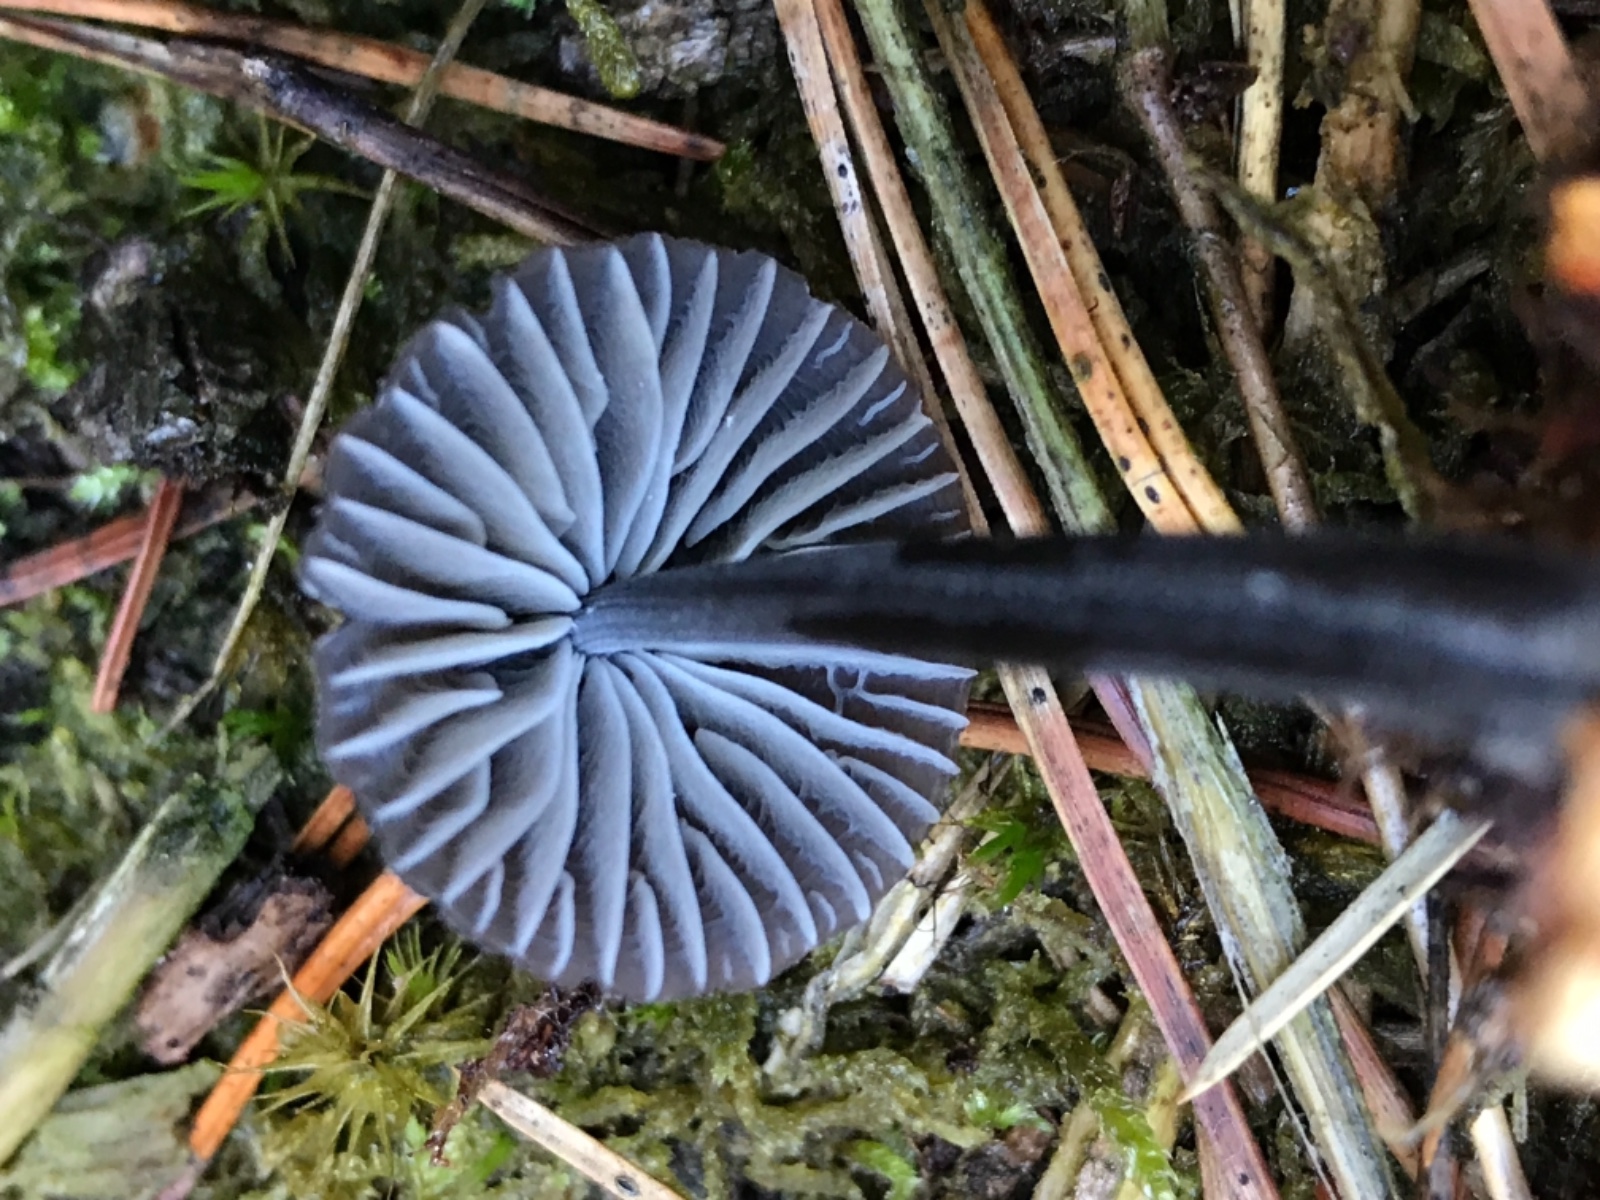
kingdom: Fungi
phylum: Basidiomycota
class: Agaricomycetes
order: Agaricales
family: Mycenaceae
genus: Mycena
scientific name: Mycena galopus
